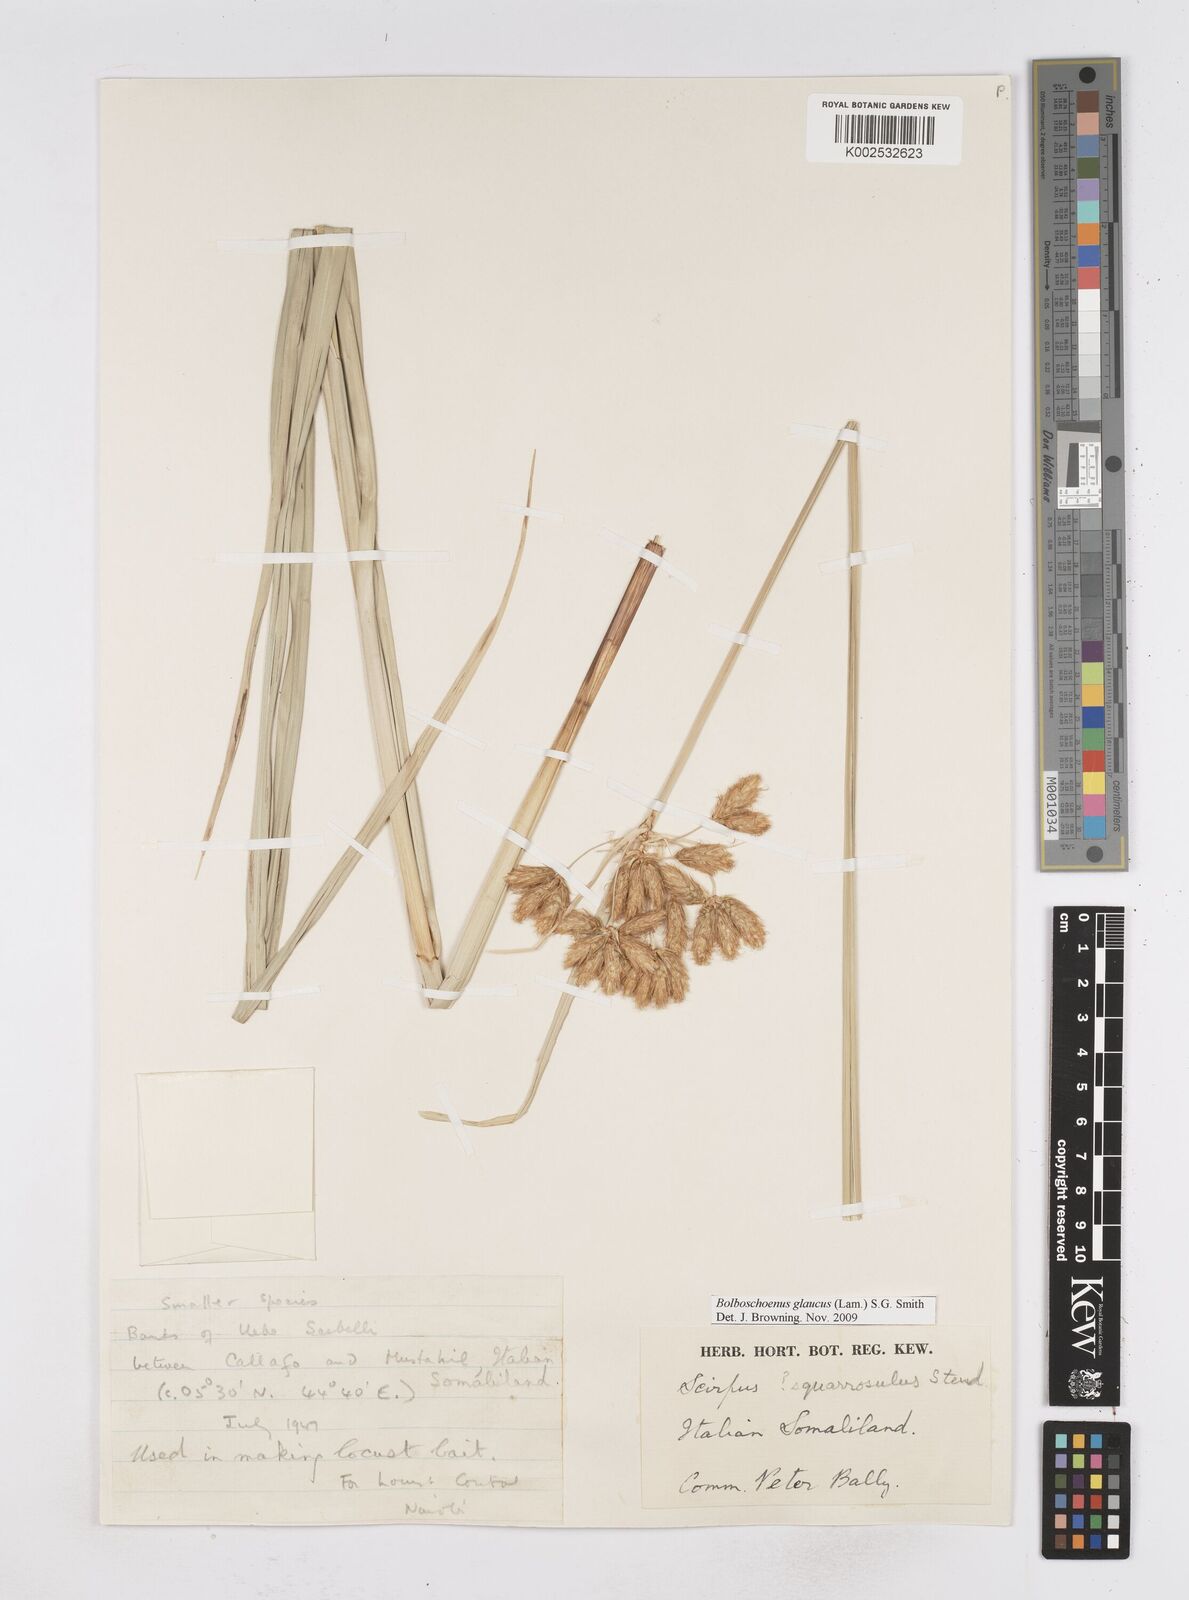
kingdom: Plantae
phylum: Tracheophyta
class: Liliopsida
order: Poales
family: Cyperaceae
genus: Bolboschoenus
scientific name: Bolboschoenus glaucus
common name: Tuberous bulrush
